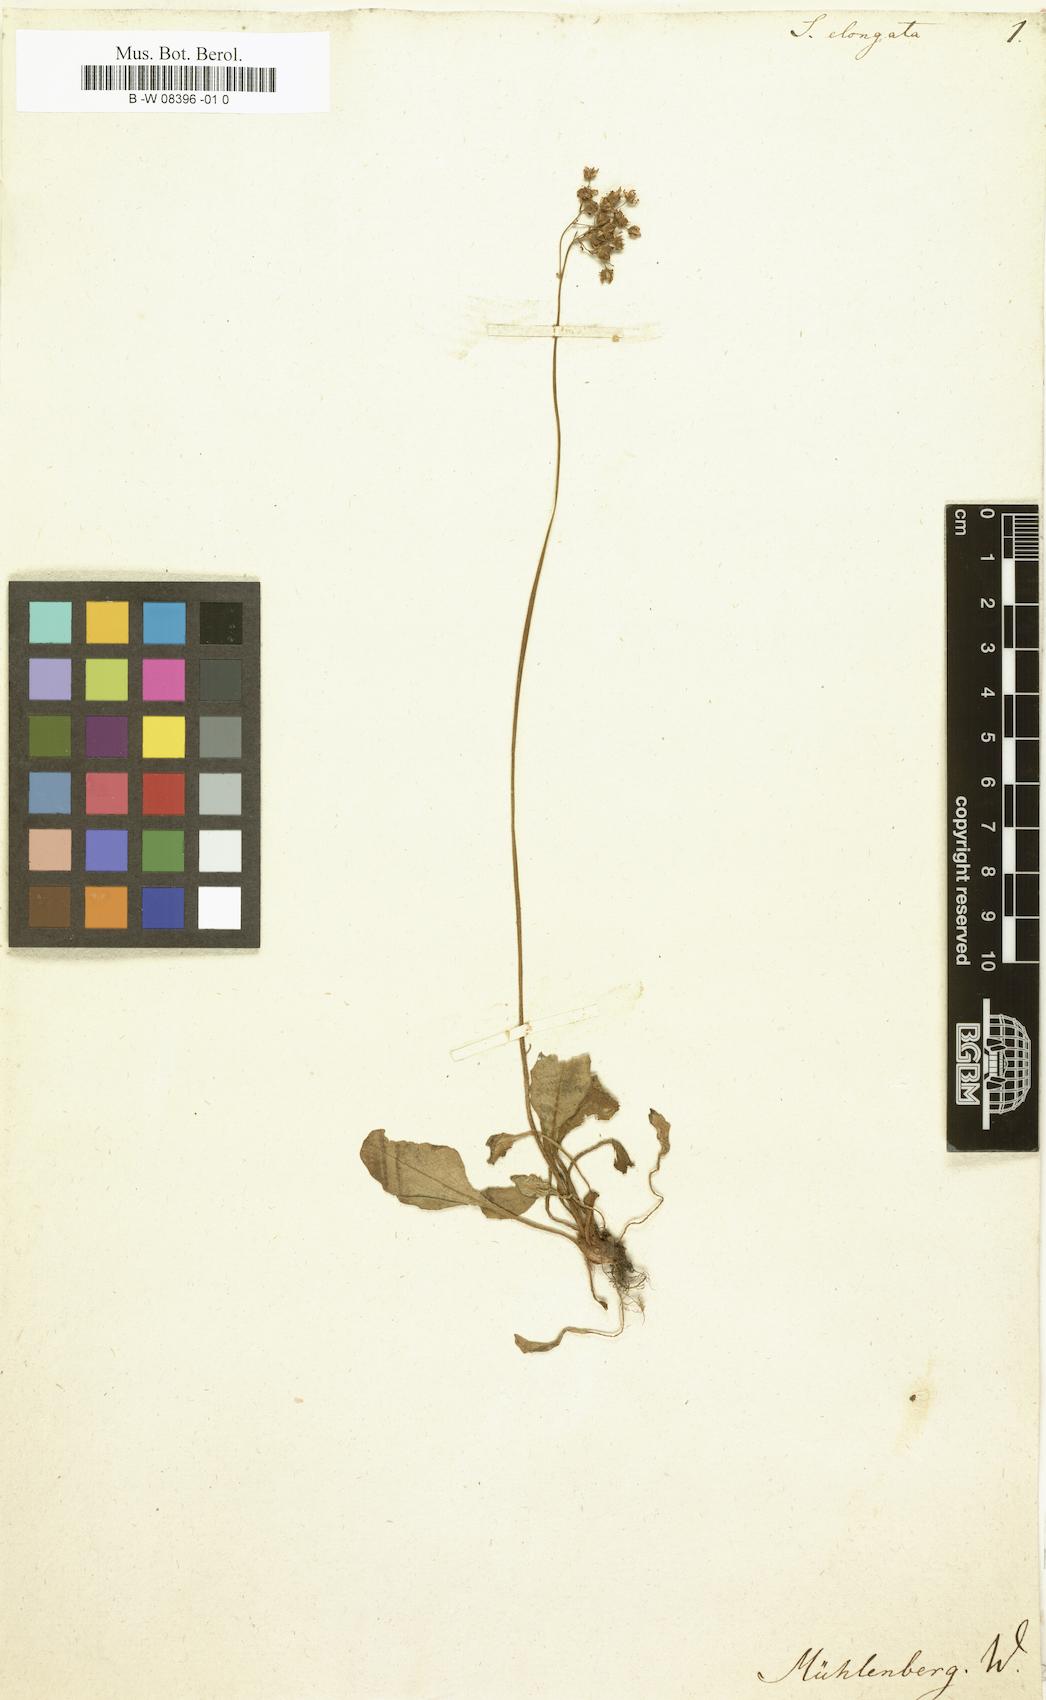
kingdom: Plantae
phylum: Tracheophyta
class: Magnoliopsida
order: Saxifragales
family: Saxifragaceae
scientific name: Saxifragaceae
